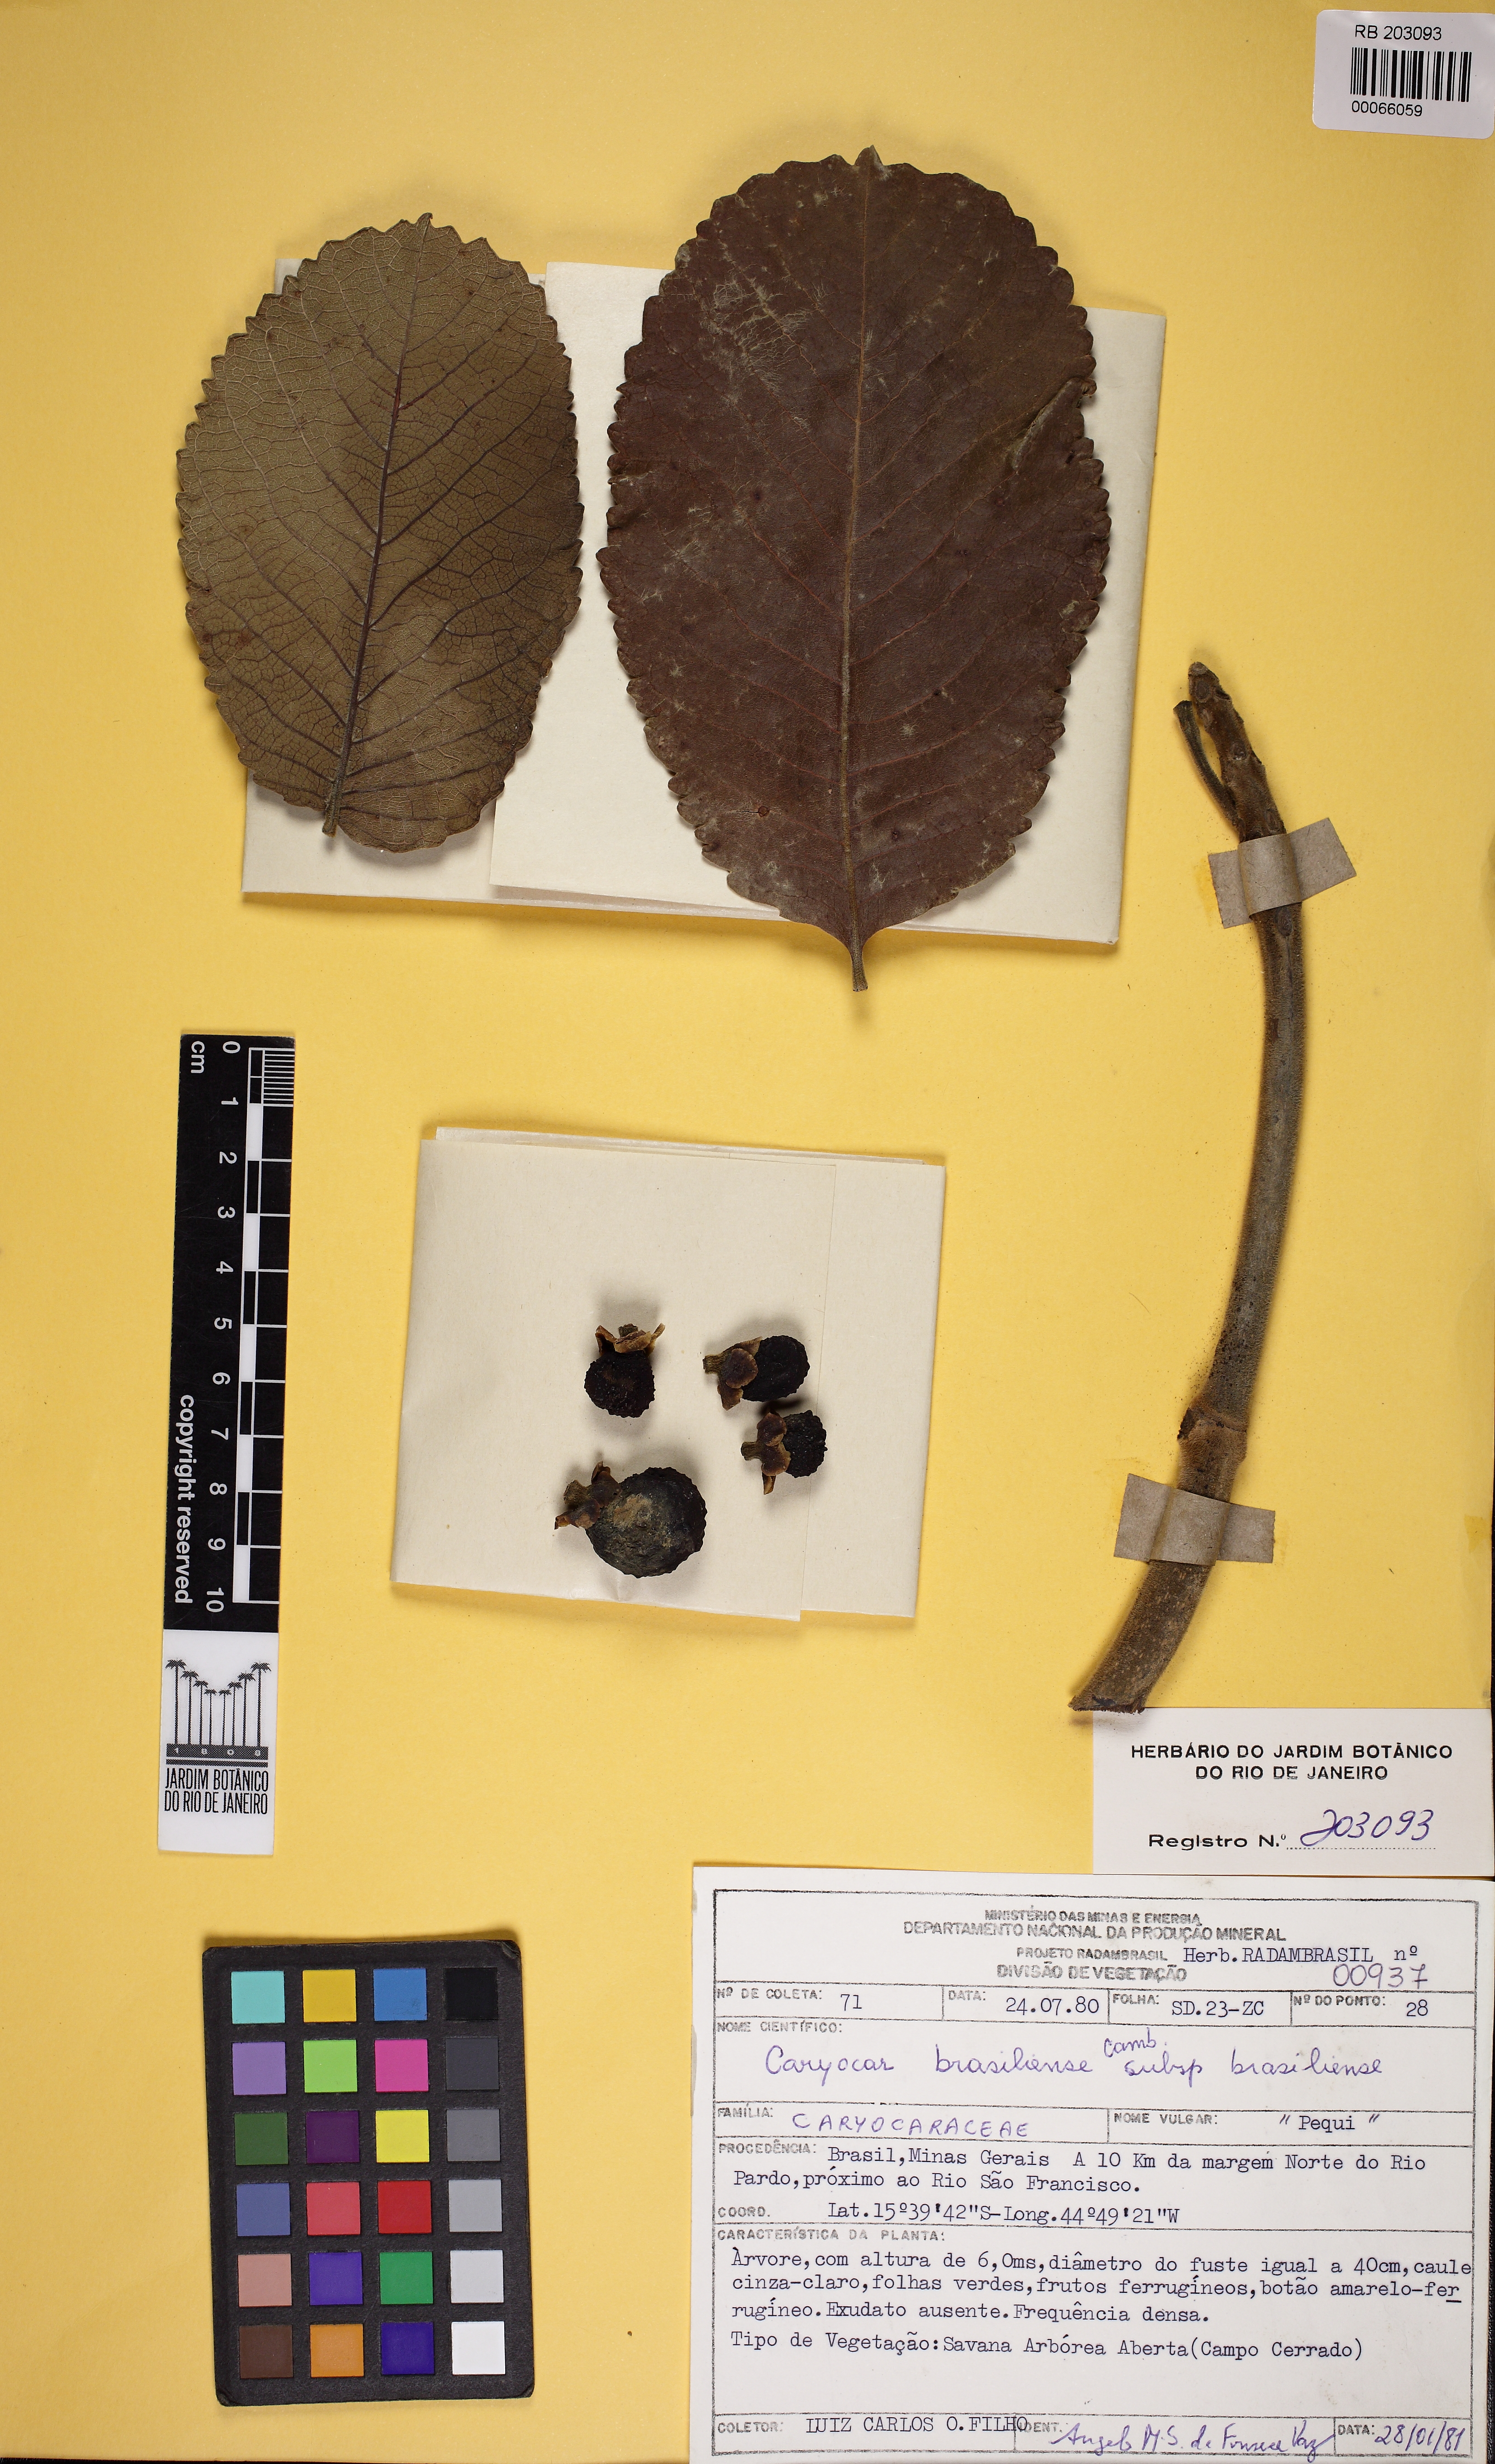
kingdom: Plantae
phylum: Tracheophyta
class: Magnoliopsida
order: Malpighiales
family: Caryocaraceae
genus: Caryocar
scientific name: Caryocar brasiliense
